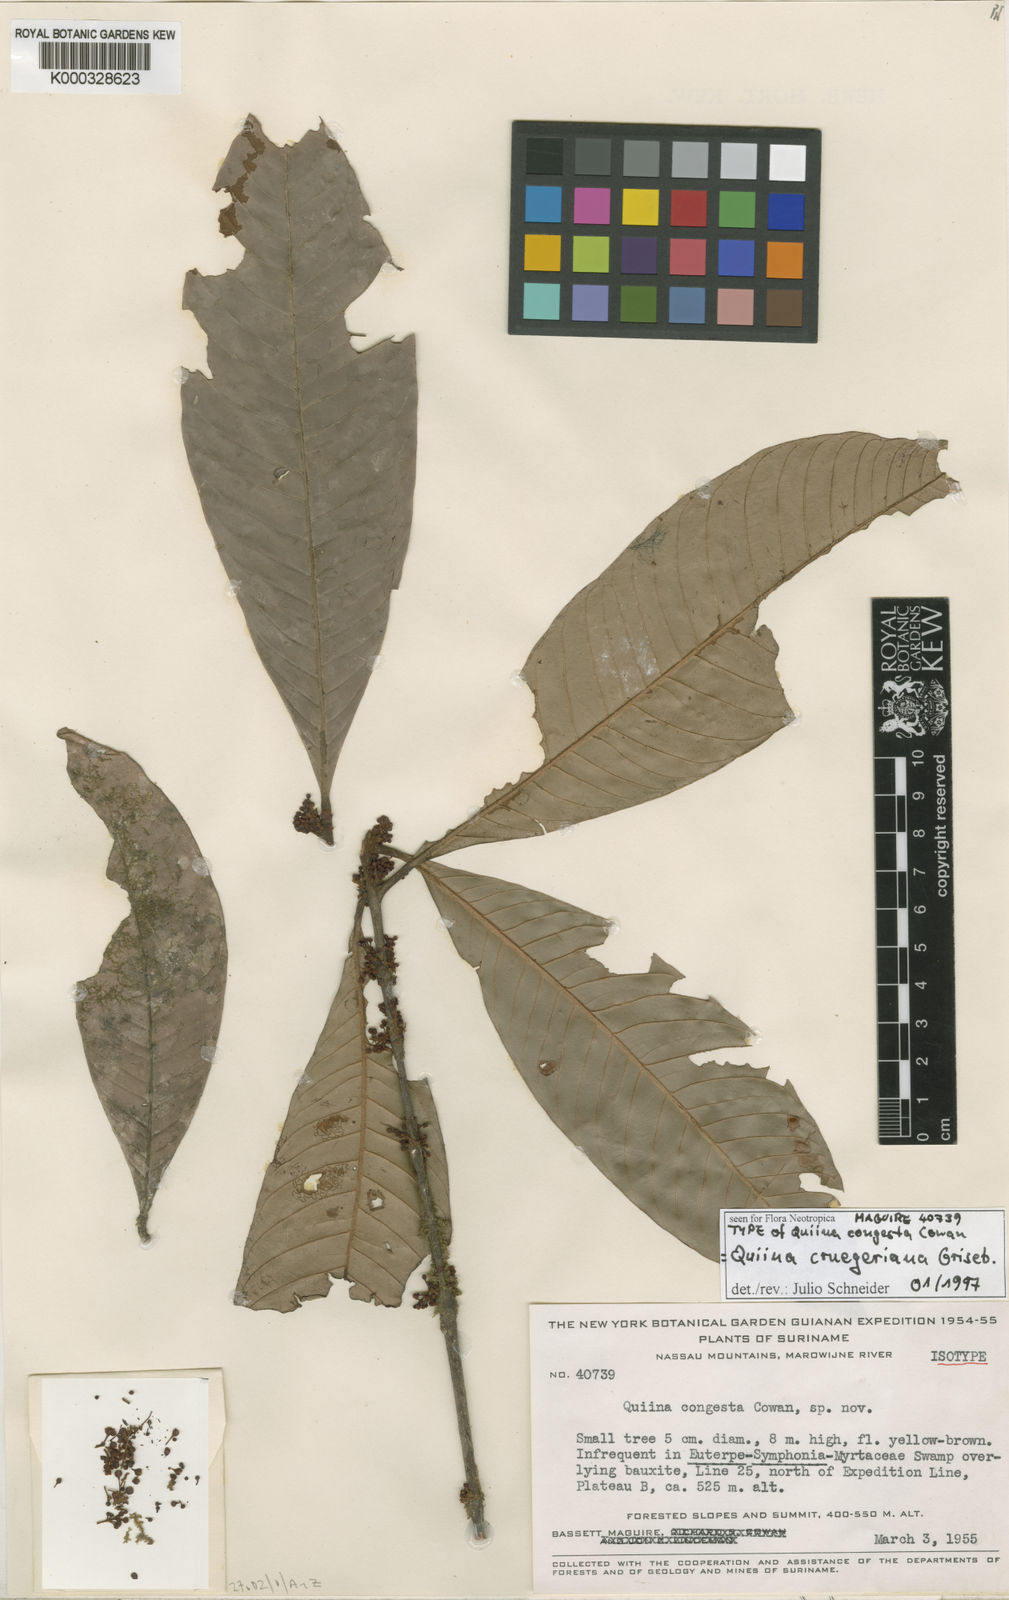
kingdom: Plantae
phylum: Tracheophyta
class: Magnoliopsida
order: Malpighiales
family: Quiinaceae
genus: Quiina
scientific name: Quiina cruegeriana
